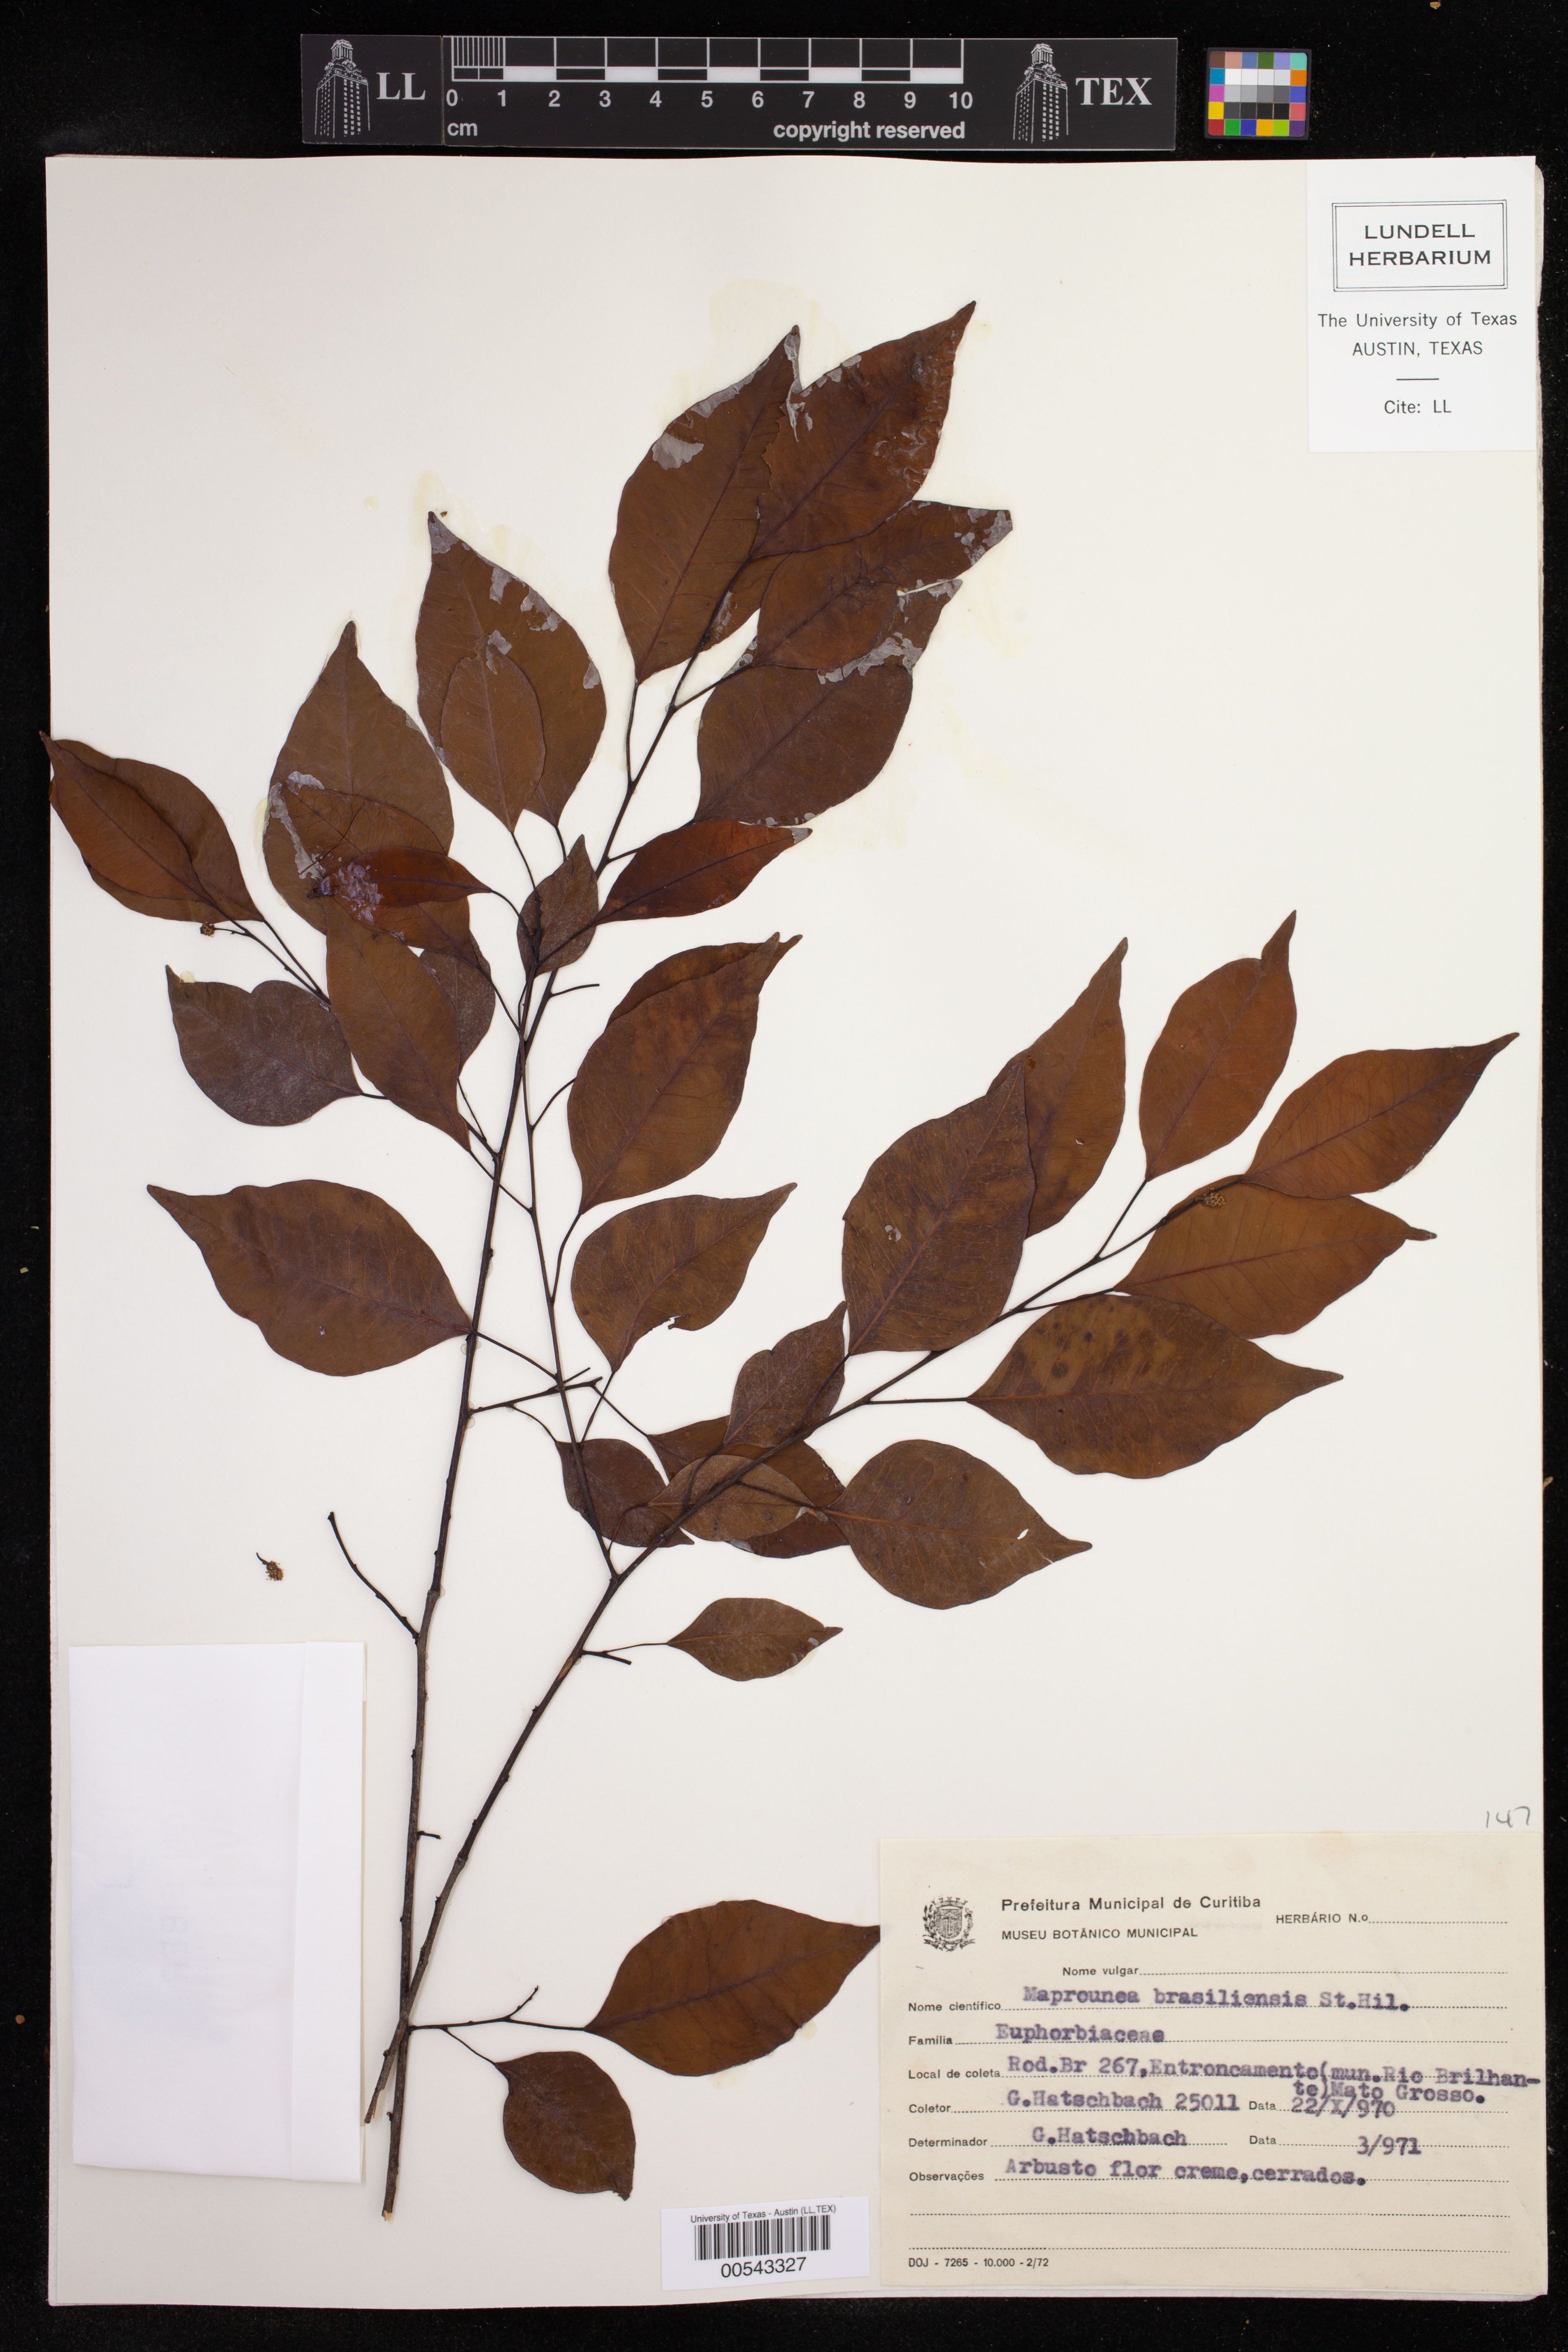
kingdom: Plantae
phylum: Tracheophyta
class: Magnoliopsida
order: Malpighiales
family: Euphorbiaceae
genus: Maprounea
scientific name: Maprounea brasiliensis
